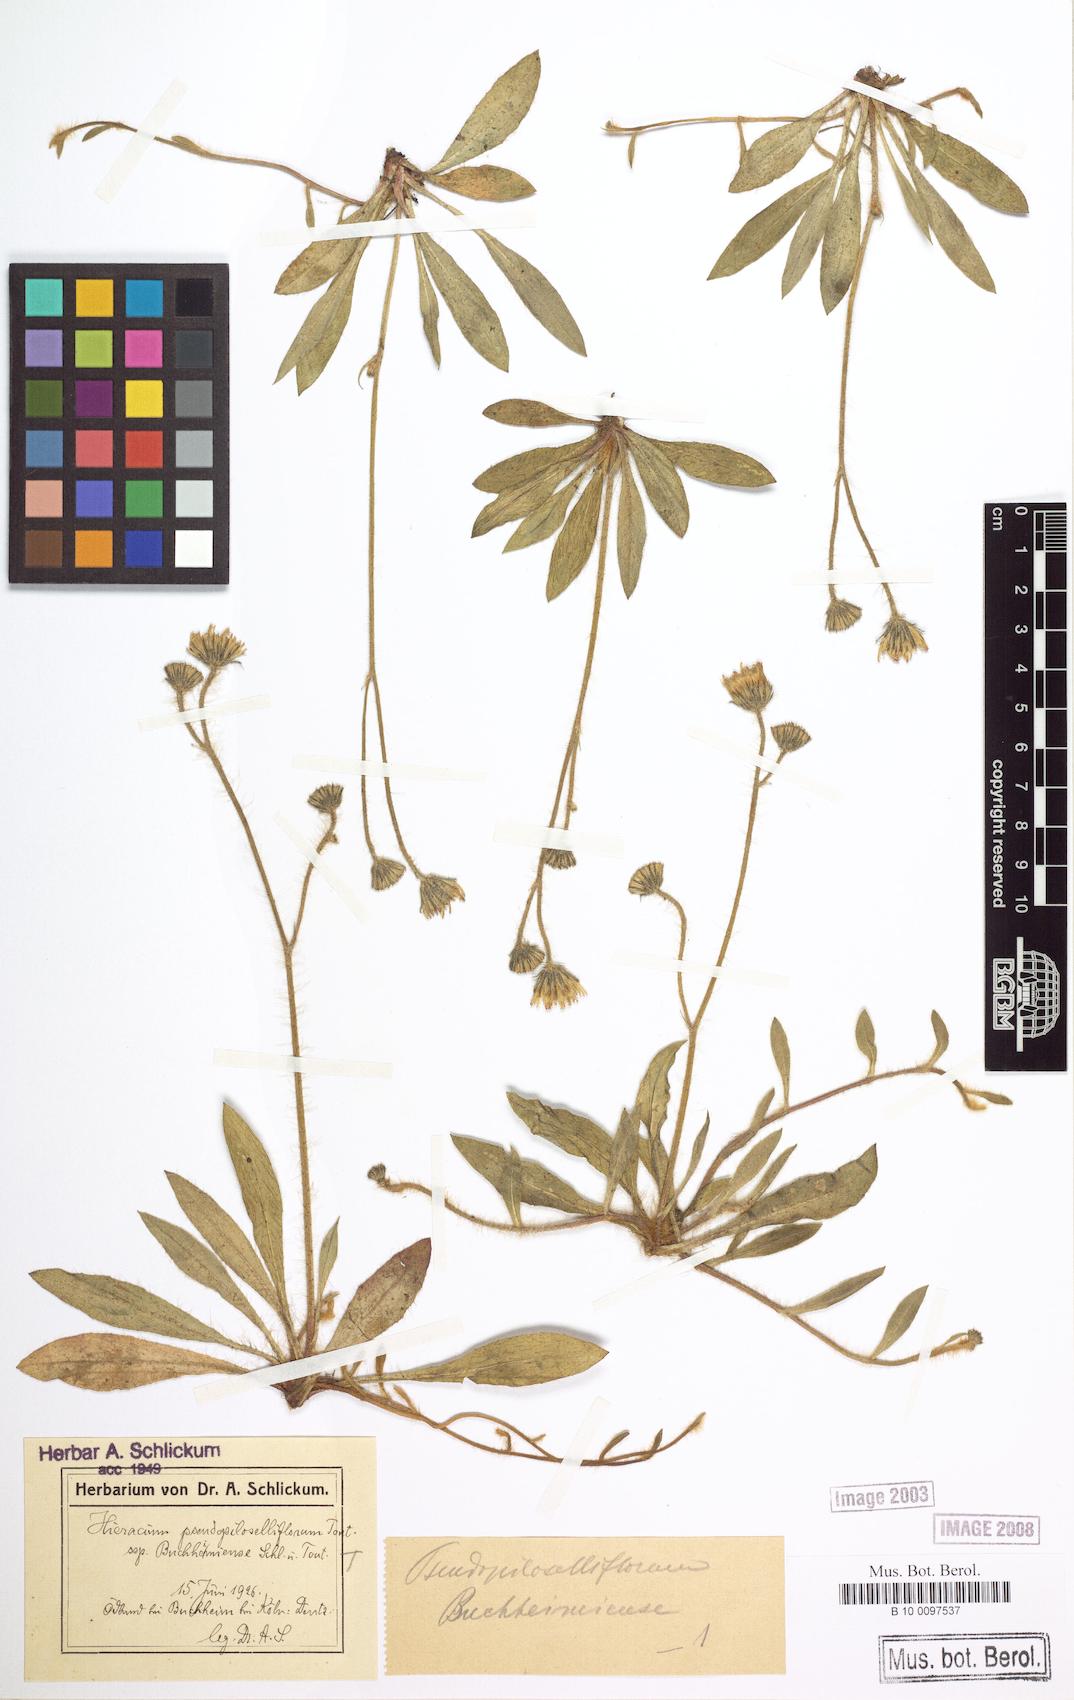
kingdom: Plantae
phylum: Tracheophyta
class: Magnoliopsida
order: Asterales
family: Asteraceae
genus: Pilosella
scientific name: Pilosella piloselliflora
